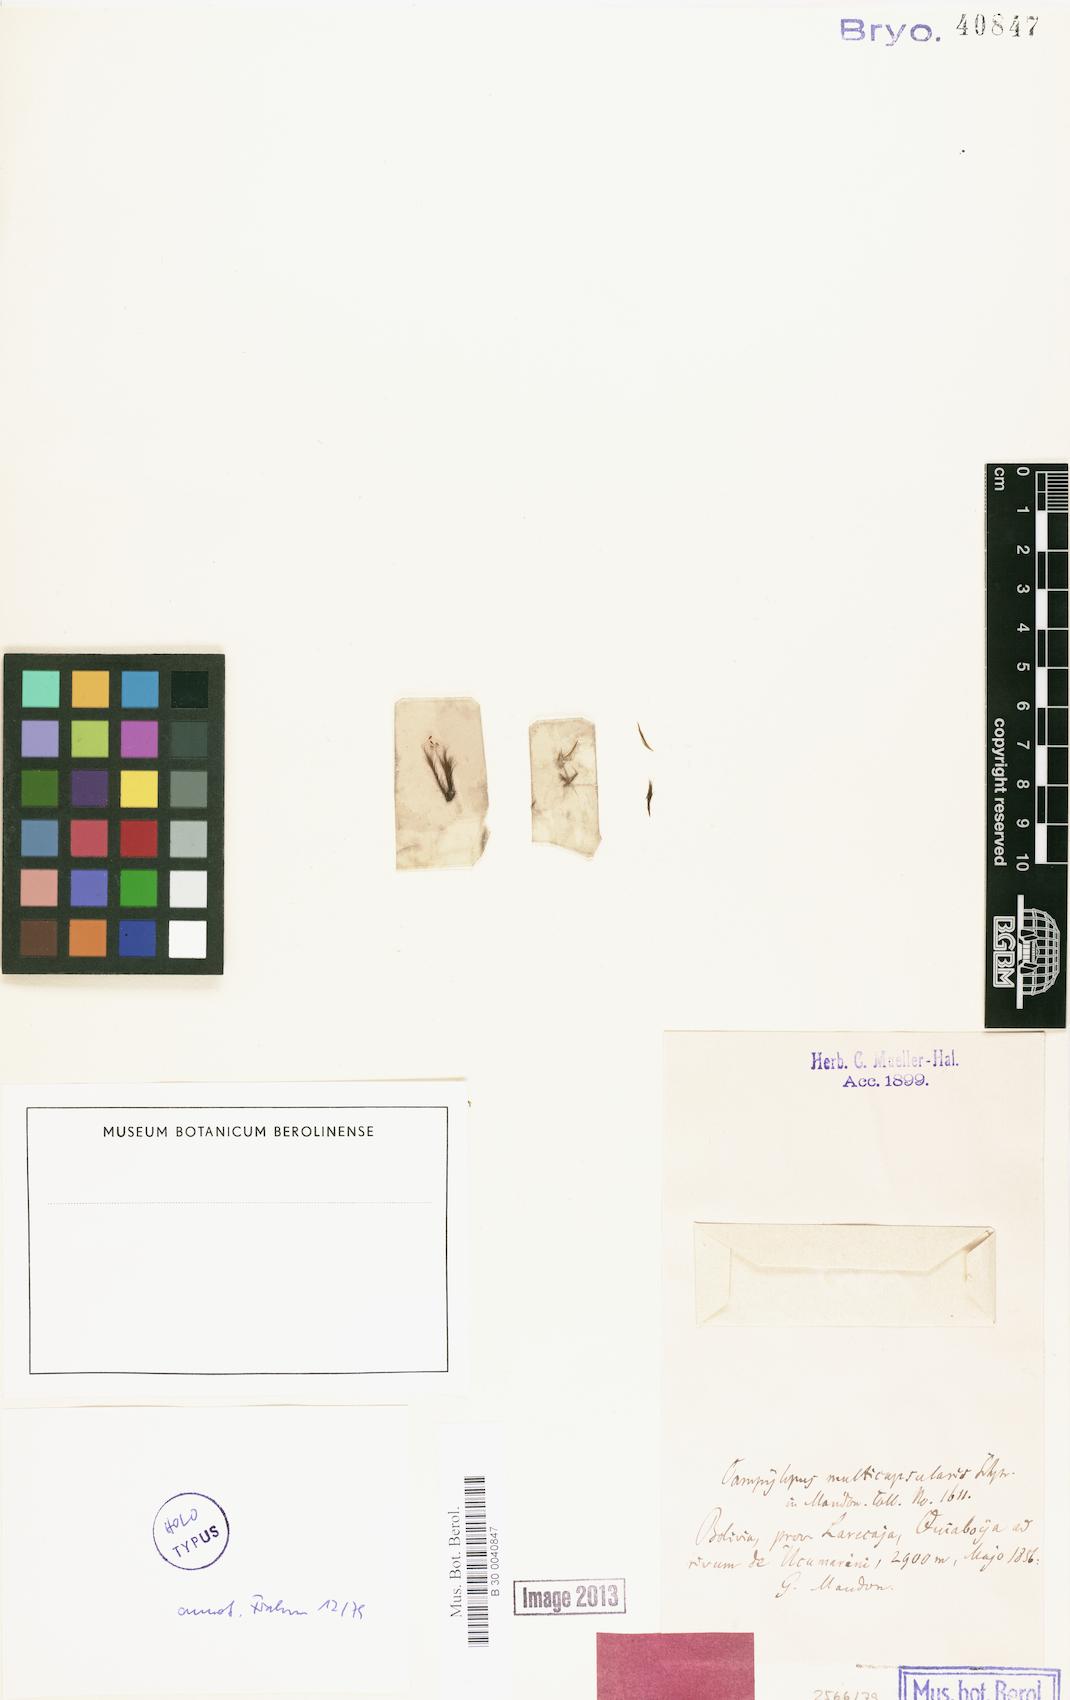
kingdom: Plantae
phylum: Bryophyta
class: Bryopsida
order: Dicranales
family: Leucobryaceae
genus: Campylopus
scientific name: Campylopus nivalis
